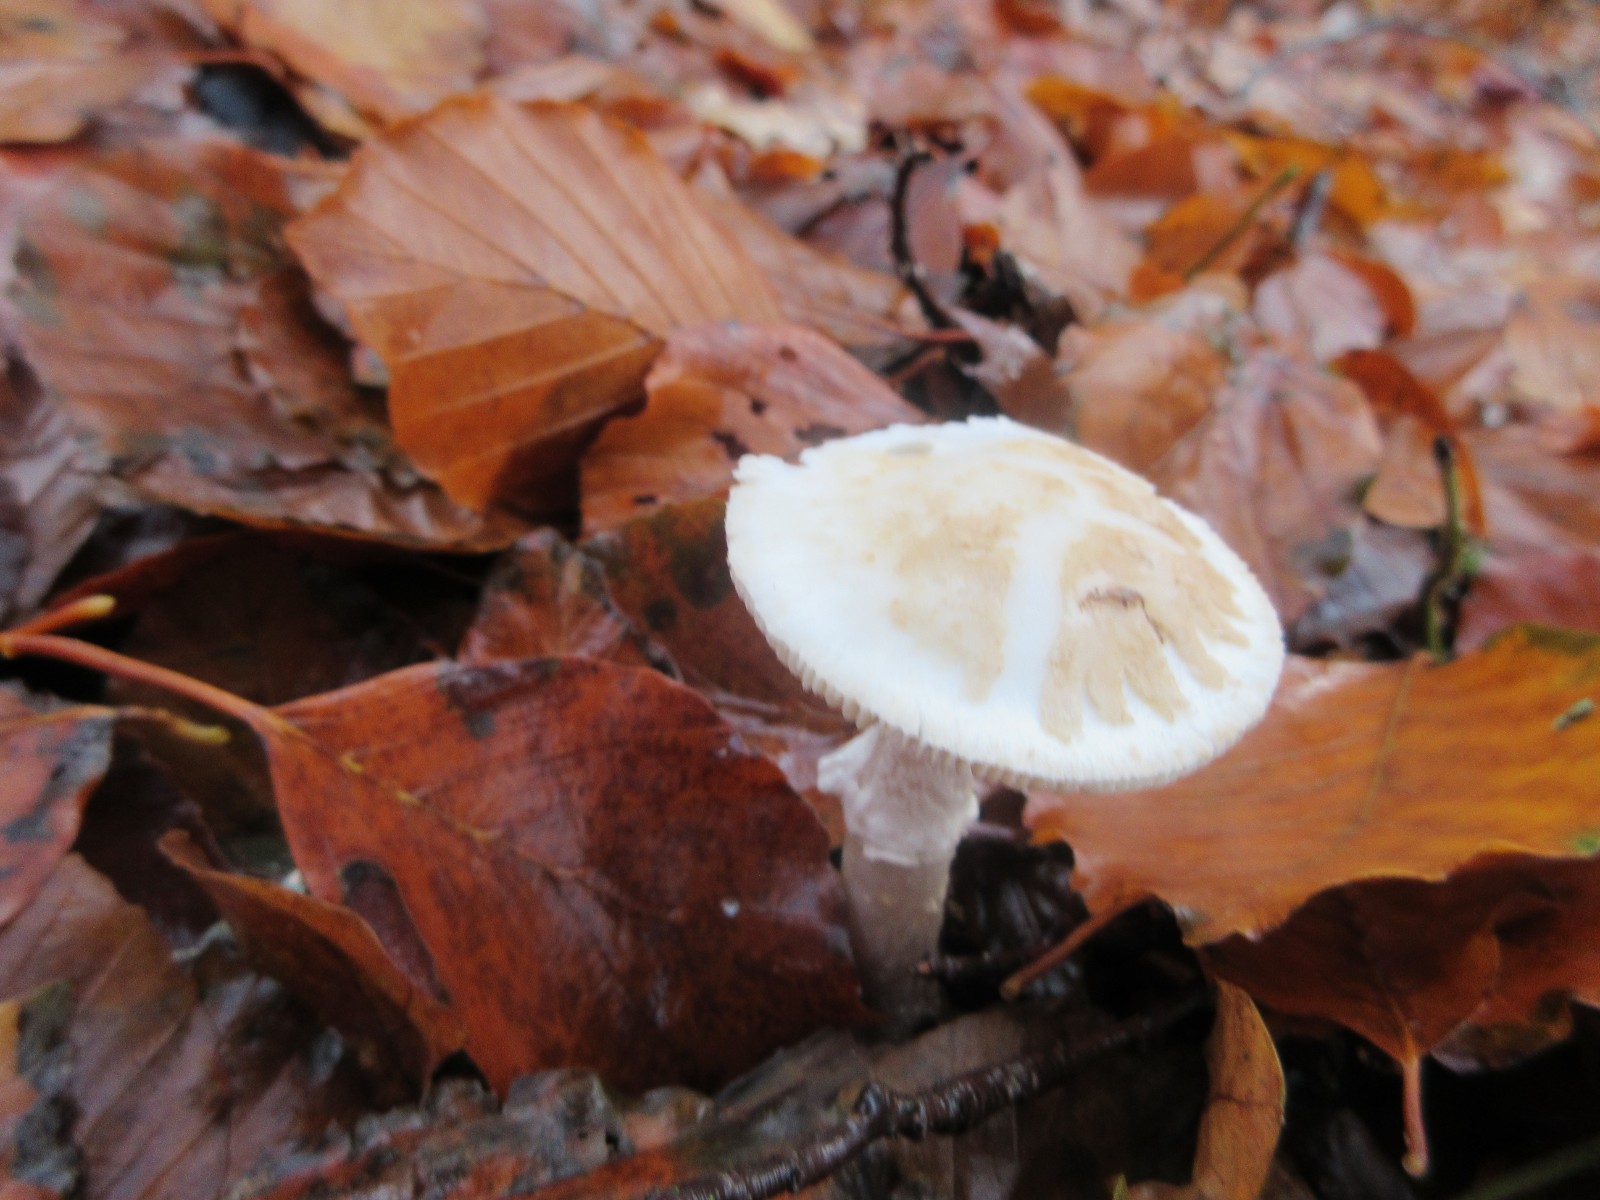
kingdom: Fungi
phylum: Basidiomycota
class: Agaricomycetes
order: Agaricales
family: Amanitaceae
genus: Amanita
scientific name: Amanita citrina
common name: False death-cap
